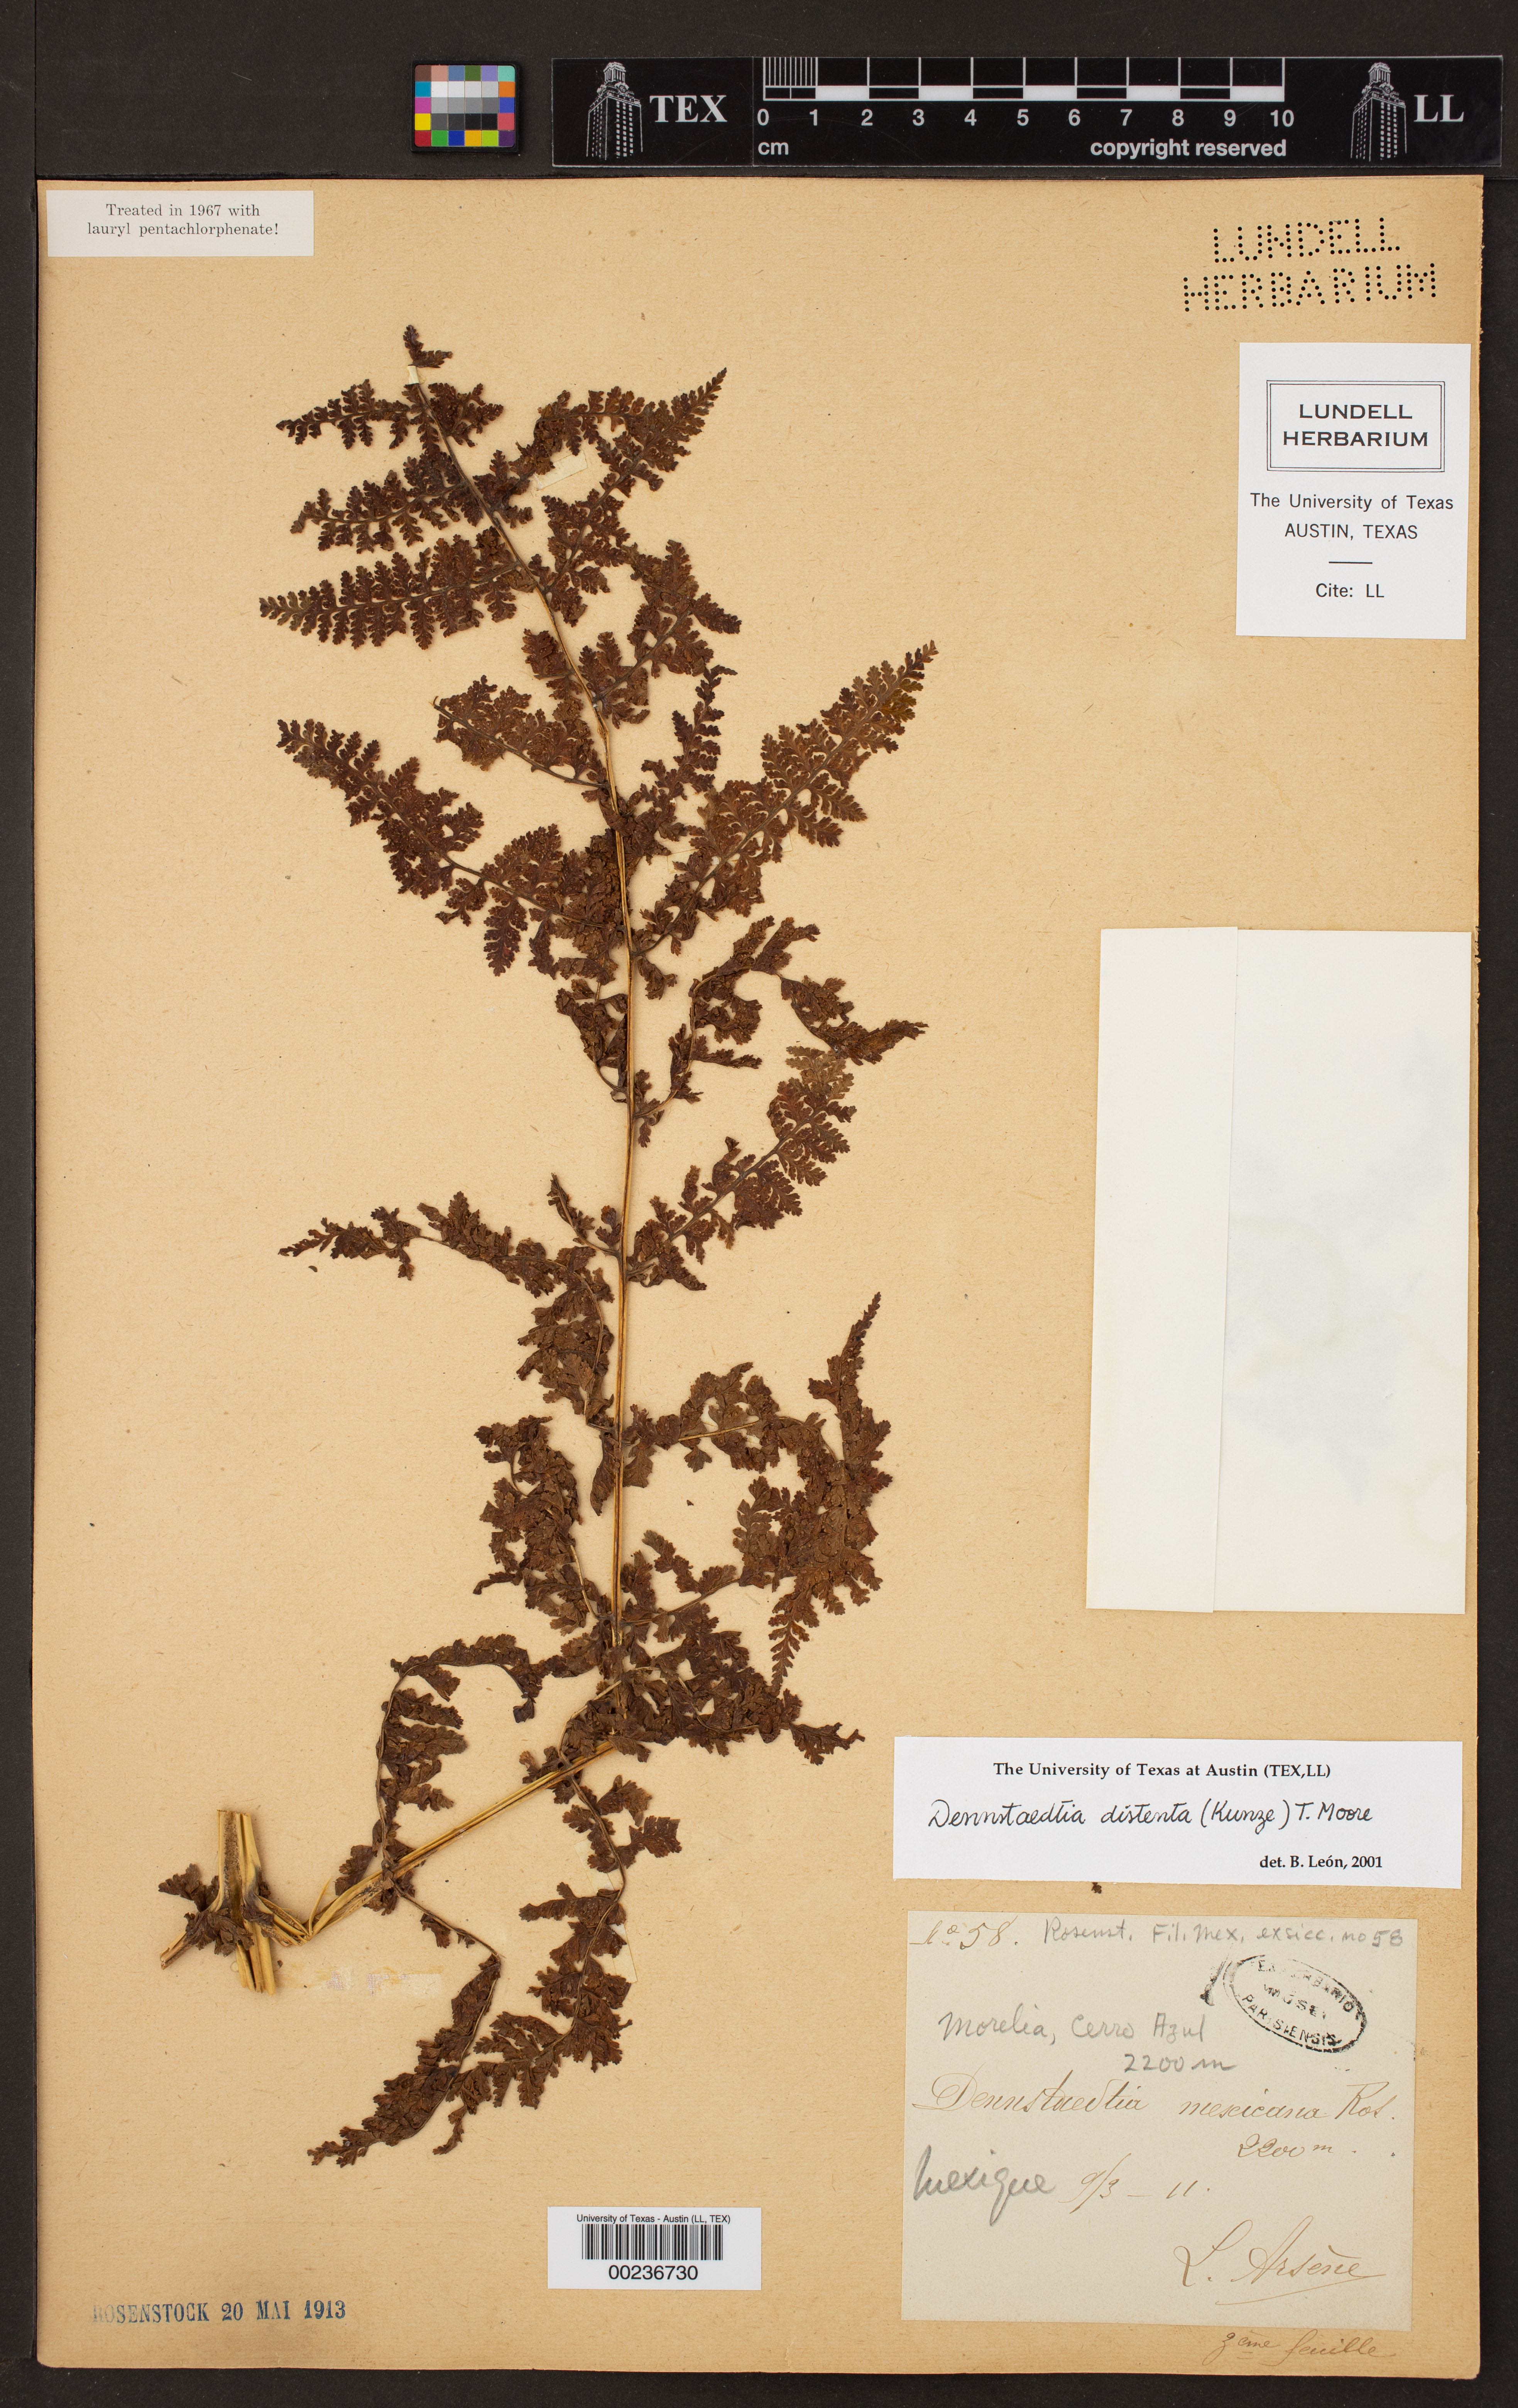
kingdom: Plantae
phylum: Tracheophyta
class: Polypodiopsida
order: Polypodiales
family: Dennstaedtiaceae
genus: Dennstaedtia
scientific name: Dennstaedtia distenta
